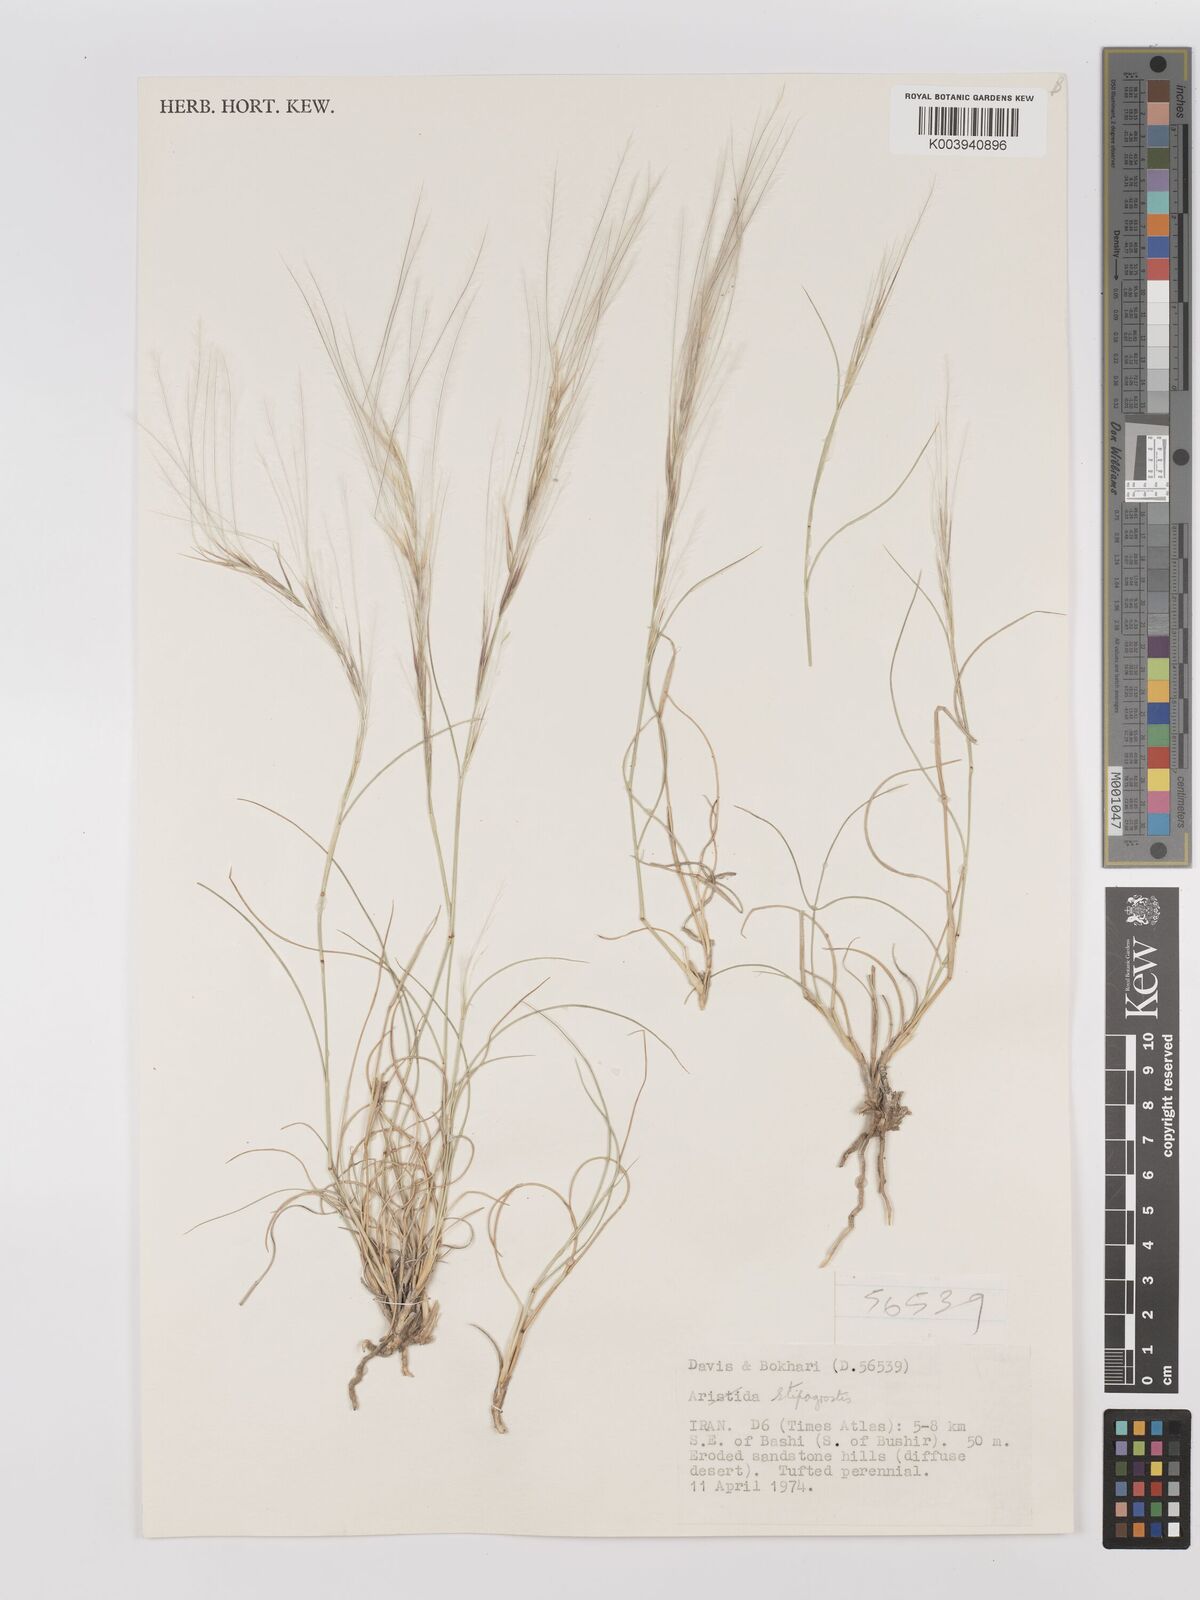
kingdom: Plantae
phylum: Tracheophyta
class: Liliopsida
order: Poales
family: Poaceae
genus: Stipagrostis
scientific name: Stipagrostis
